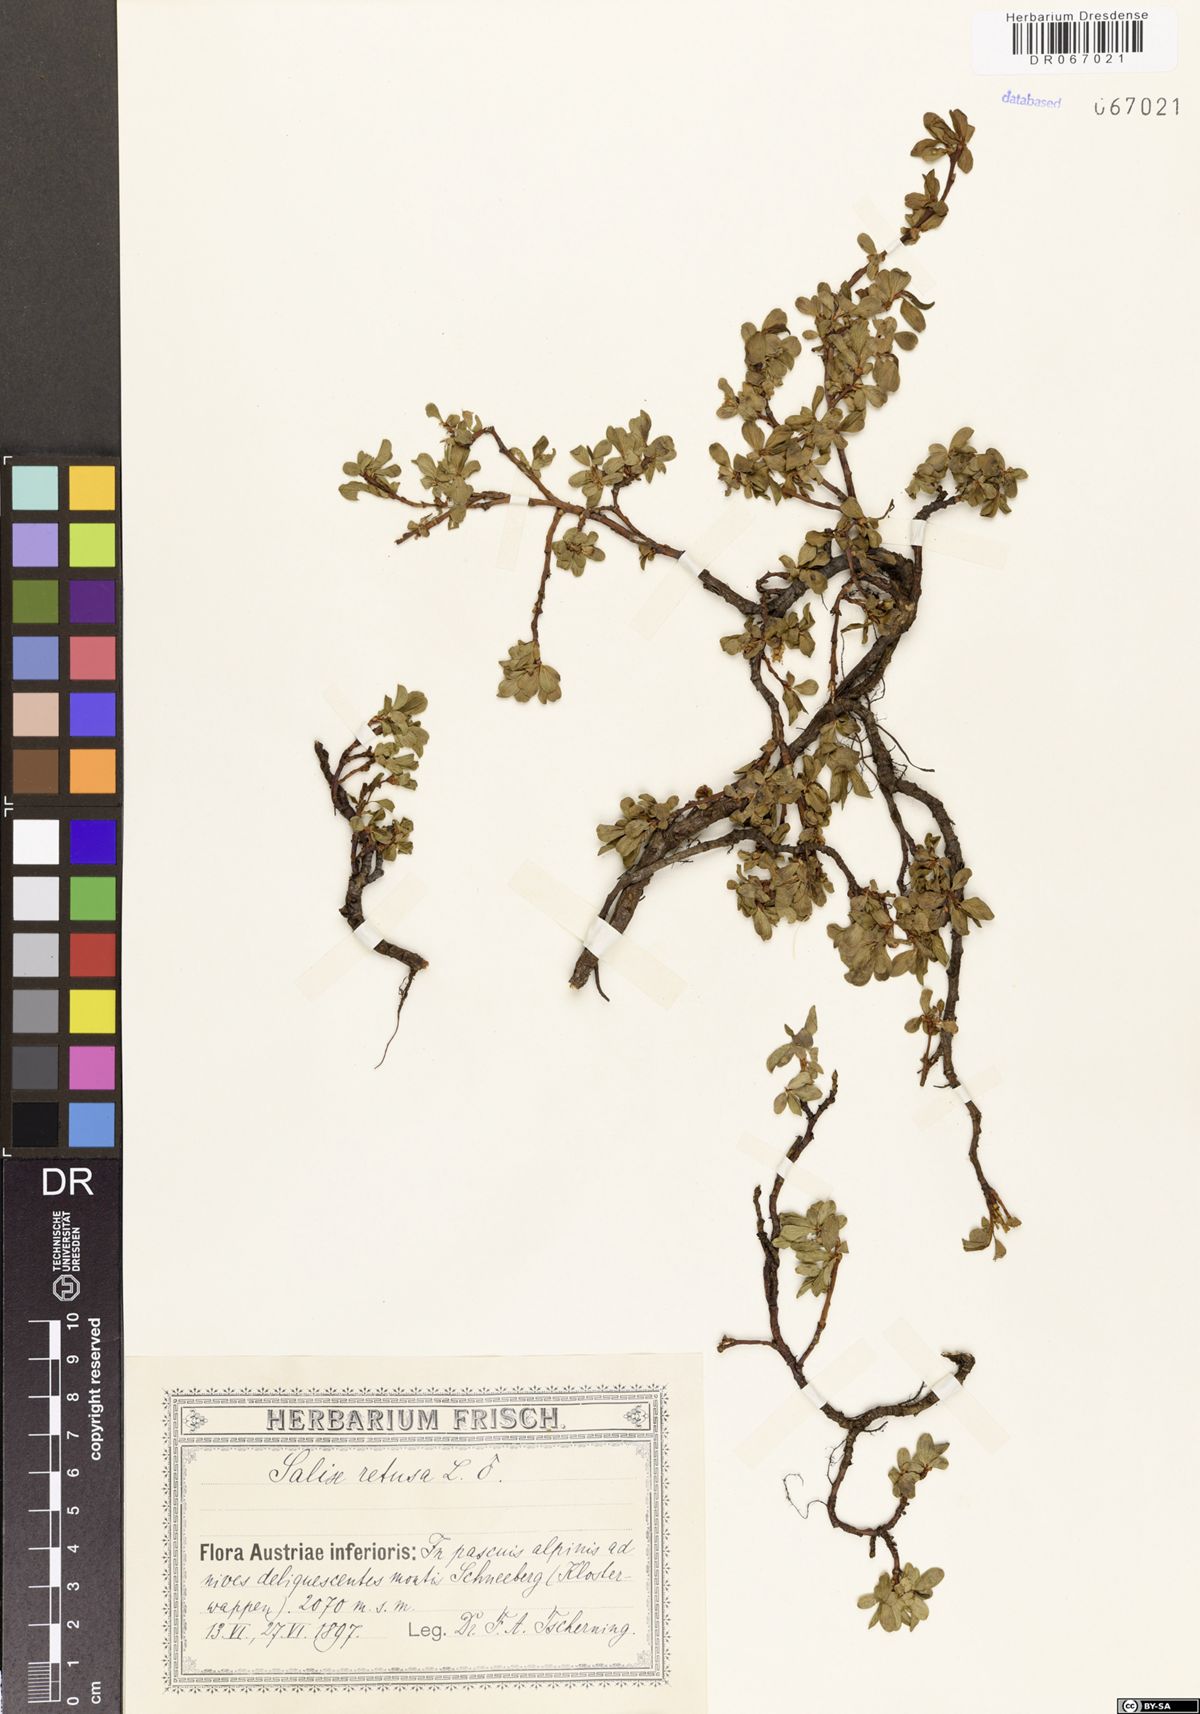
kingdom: Plantae
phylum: Tracheophyta
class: Magnoliopsida
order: Malpighiales
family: Salicaceae
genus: Salix
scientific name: Salix retusa
